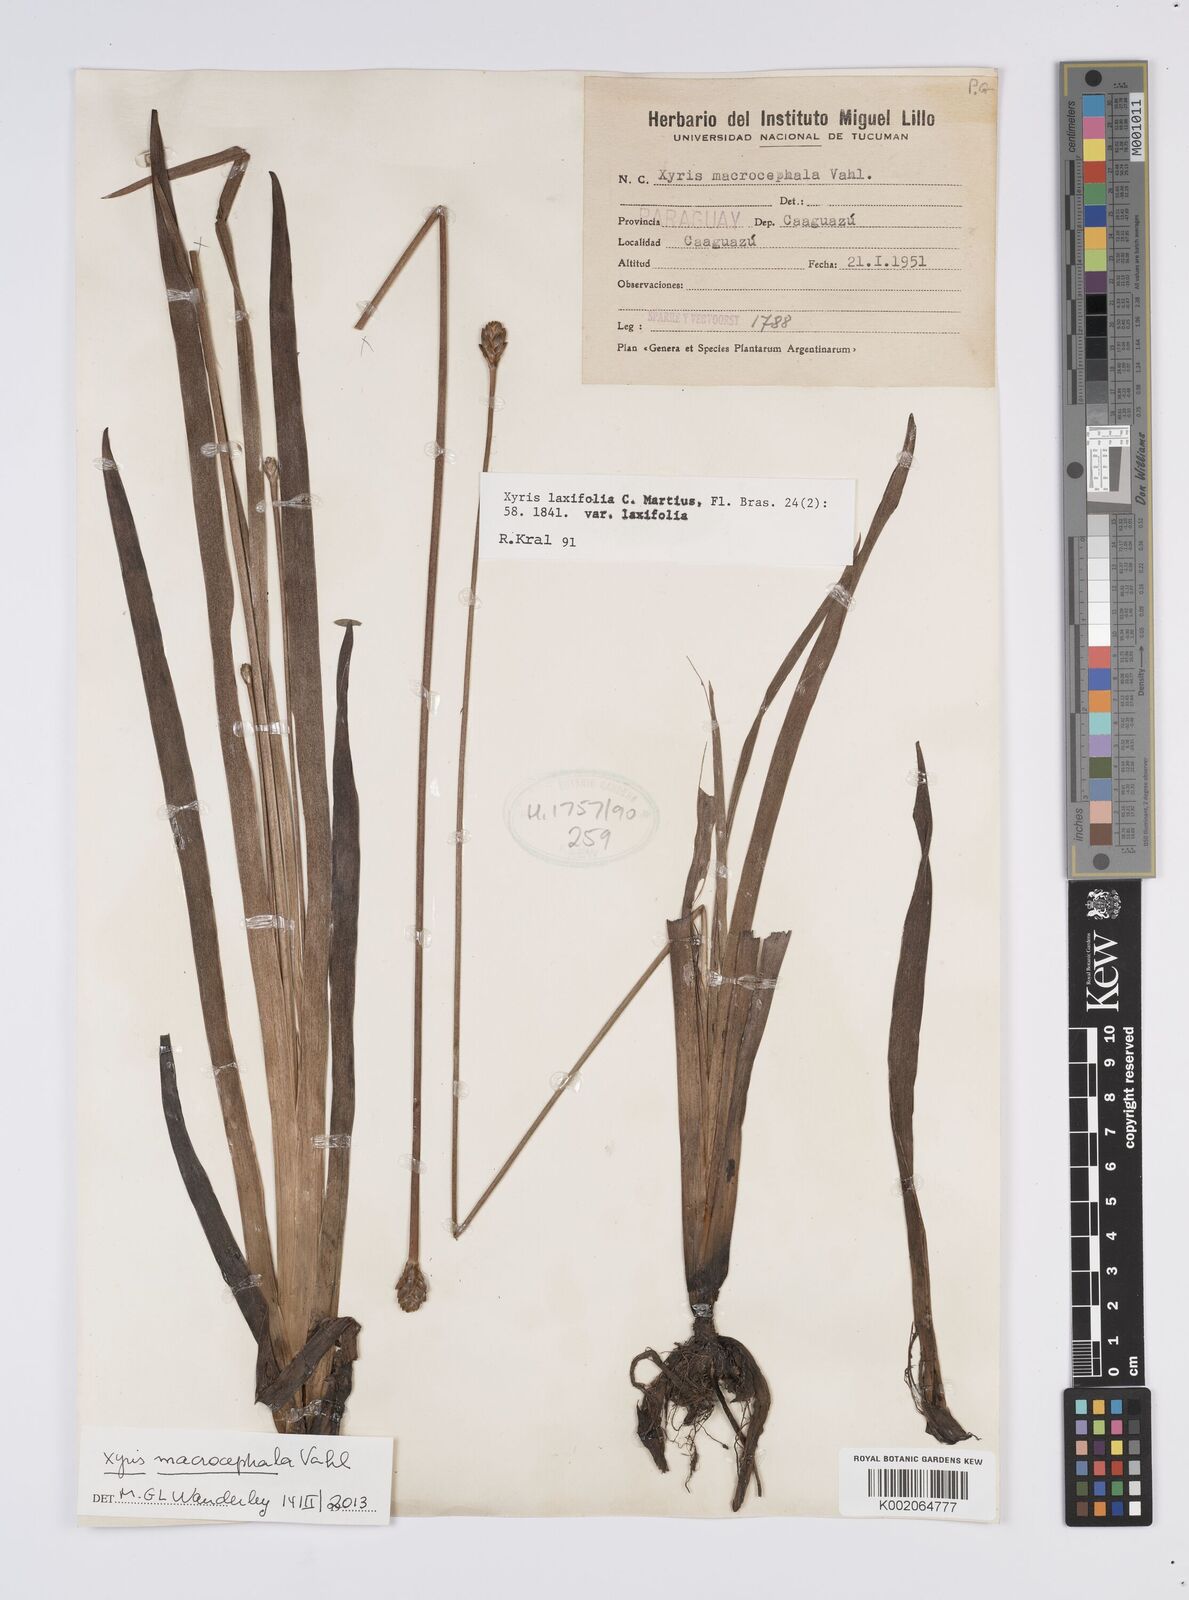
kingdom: Plantae
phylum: Tracheophyta
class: Liliopsida
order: Poales
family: Xyridaceae
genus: Xyris
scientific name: Xyris laxifolia
